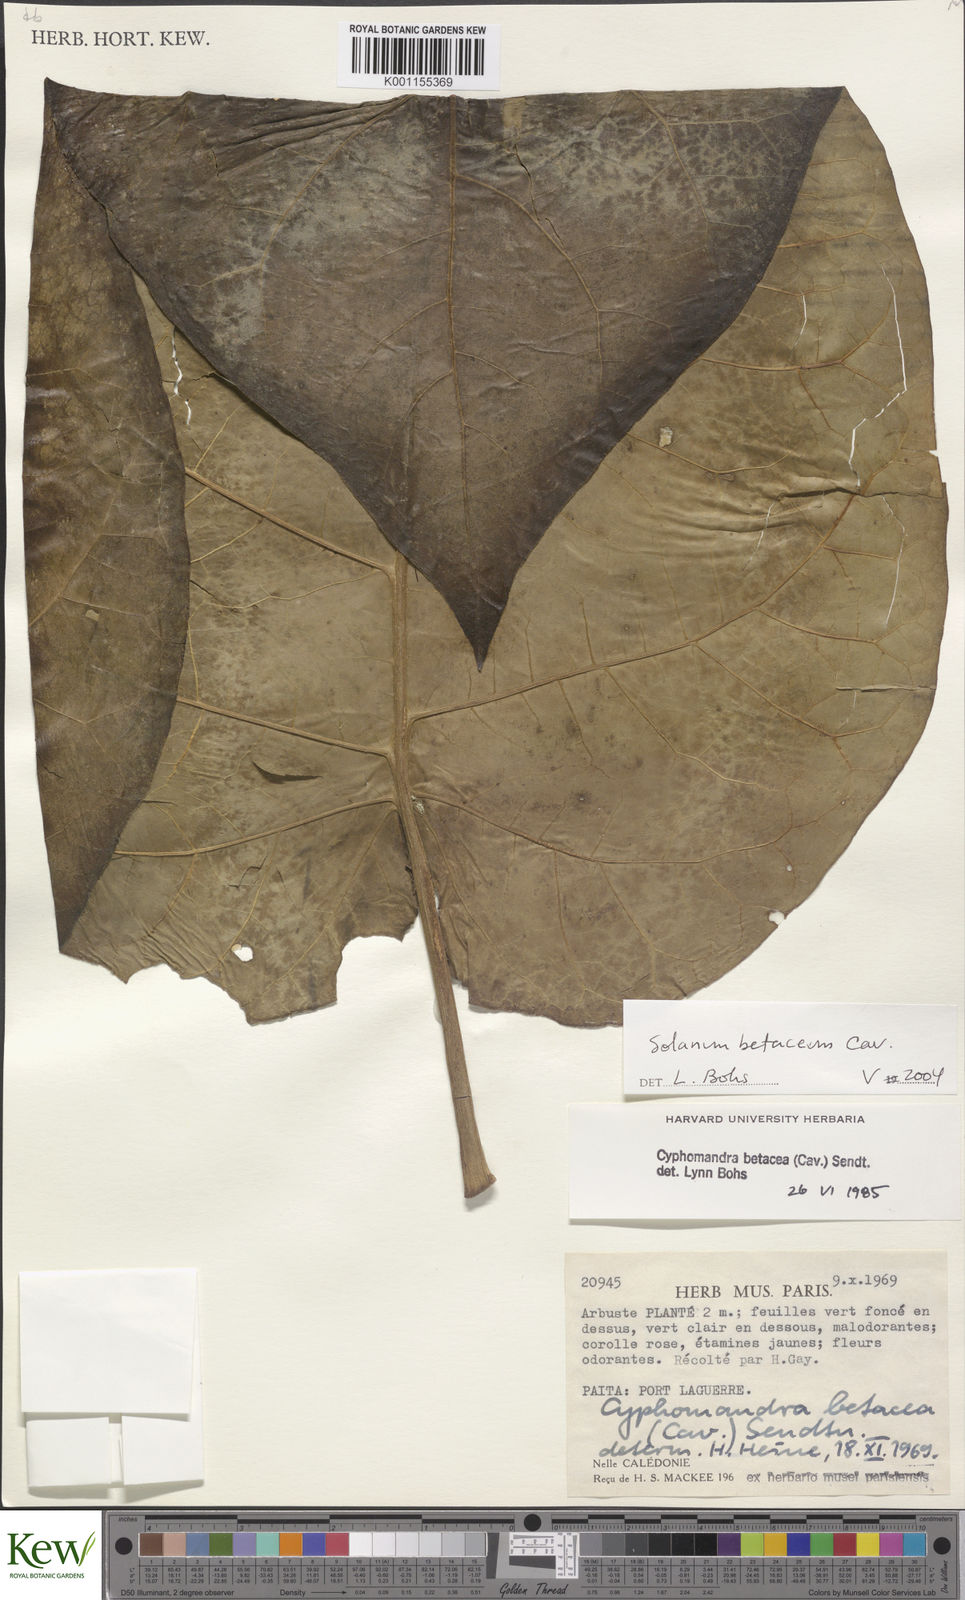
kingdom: Plantae
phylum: Tracheophyta
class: Magnoliopsida
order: Solanales
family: Solanaceae
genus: Solanum
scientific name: Solanum betaceum
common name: Tamarillo
